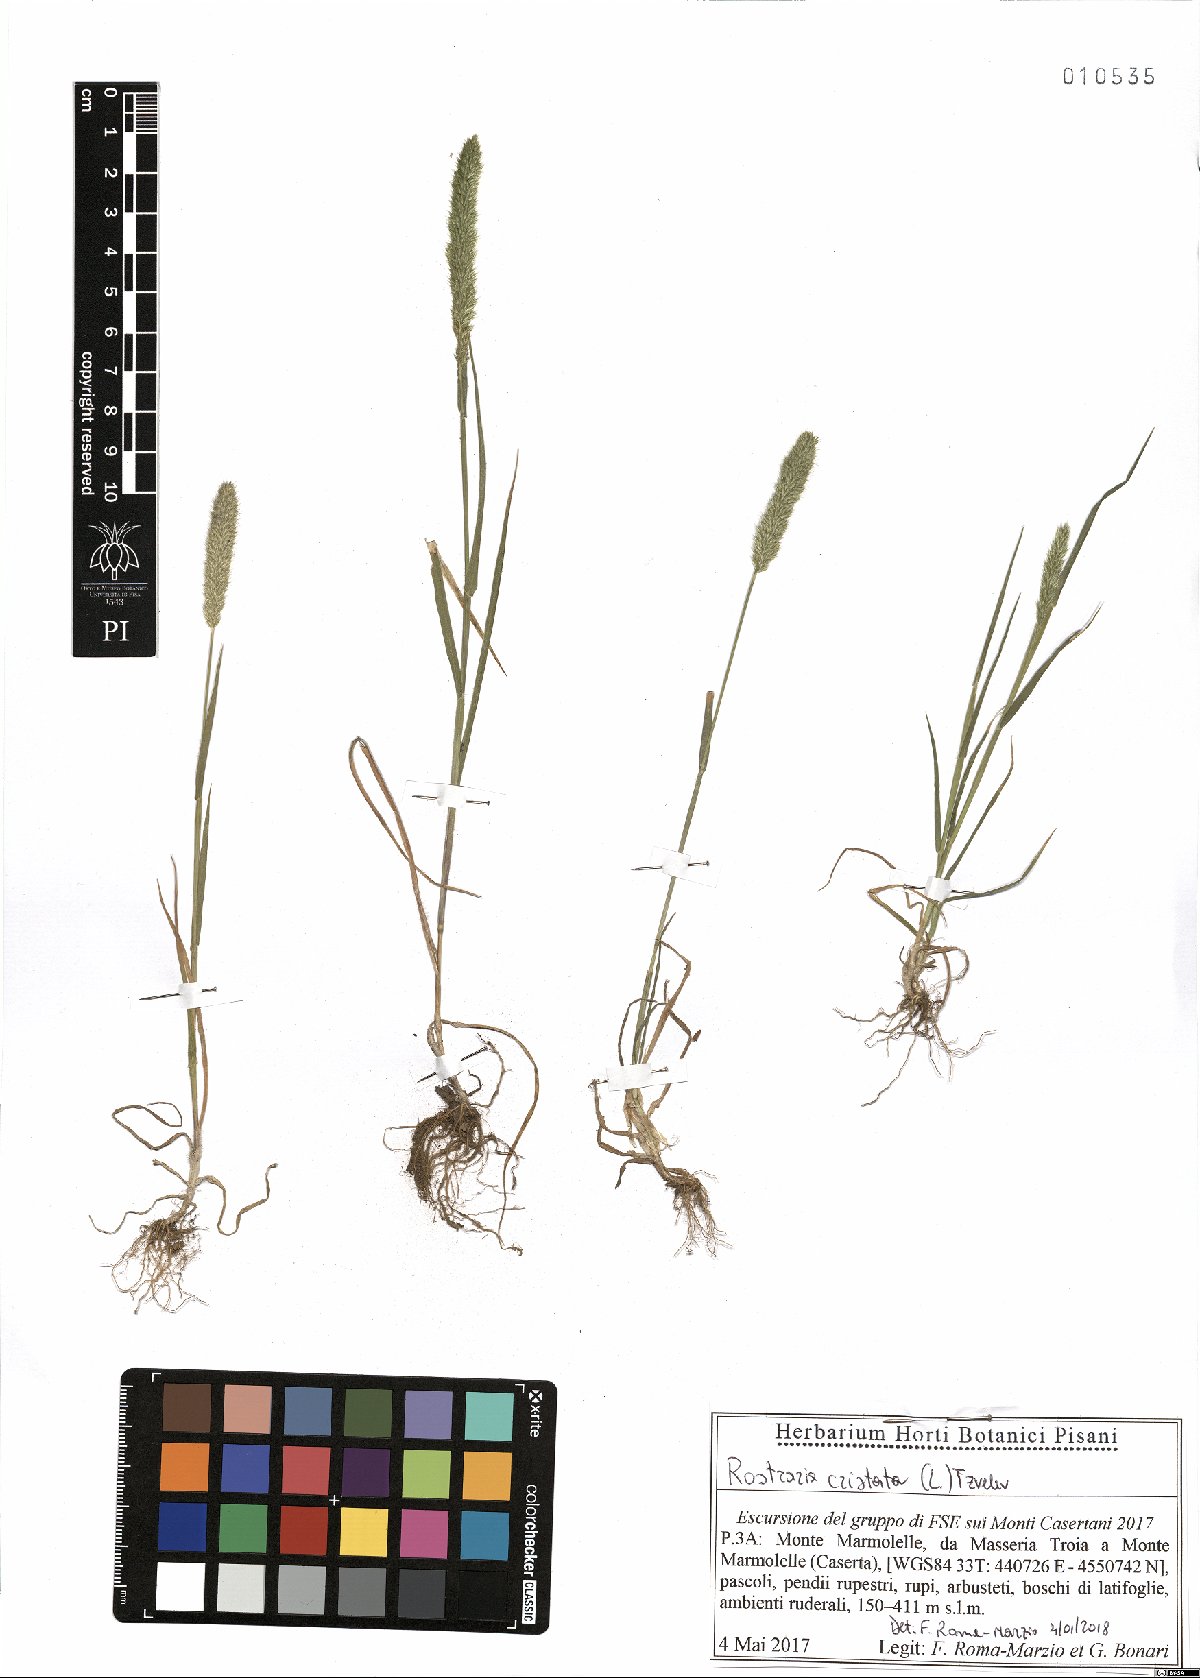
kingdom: Plantae
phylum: Tracheophyta
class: Liliopsida
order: Poales
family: Poaceae
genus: Rostraria
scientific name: Rostraria cristata
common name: Mediterranean hair-grass
